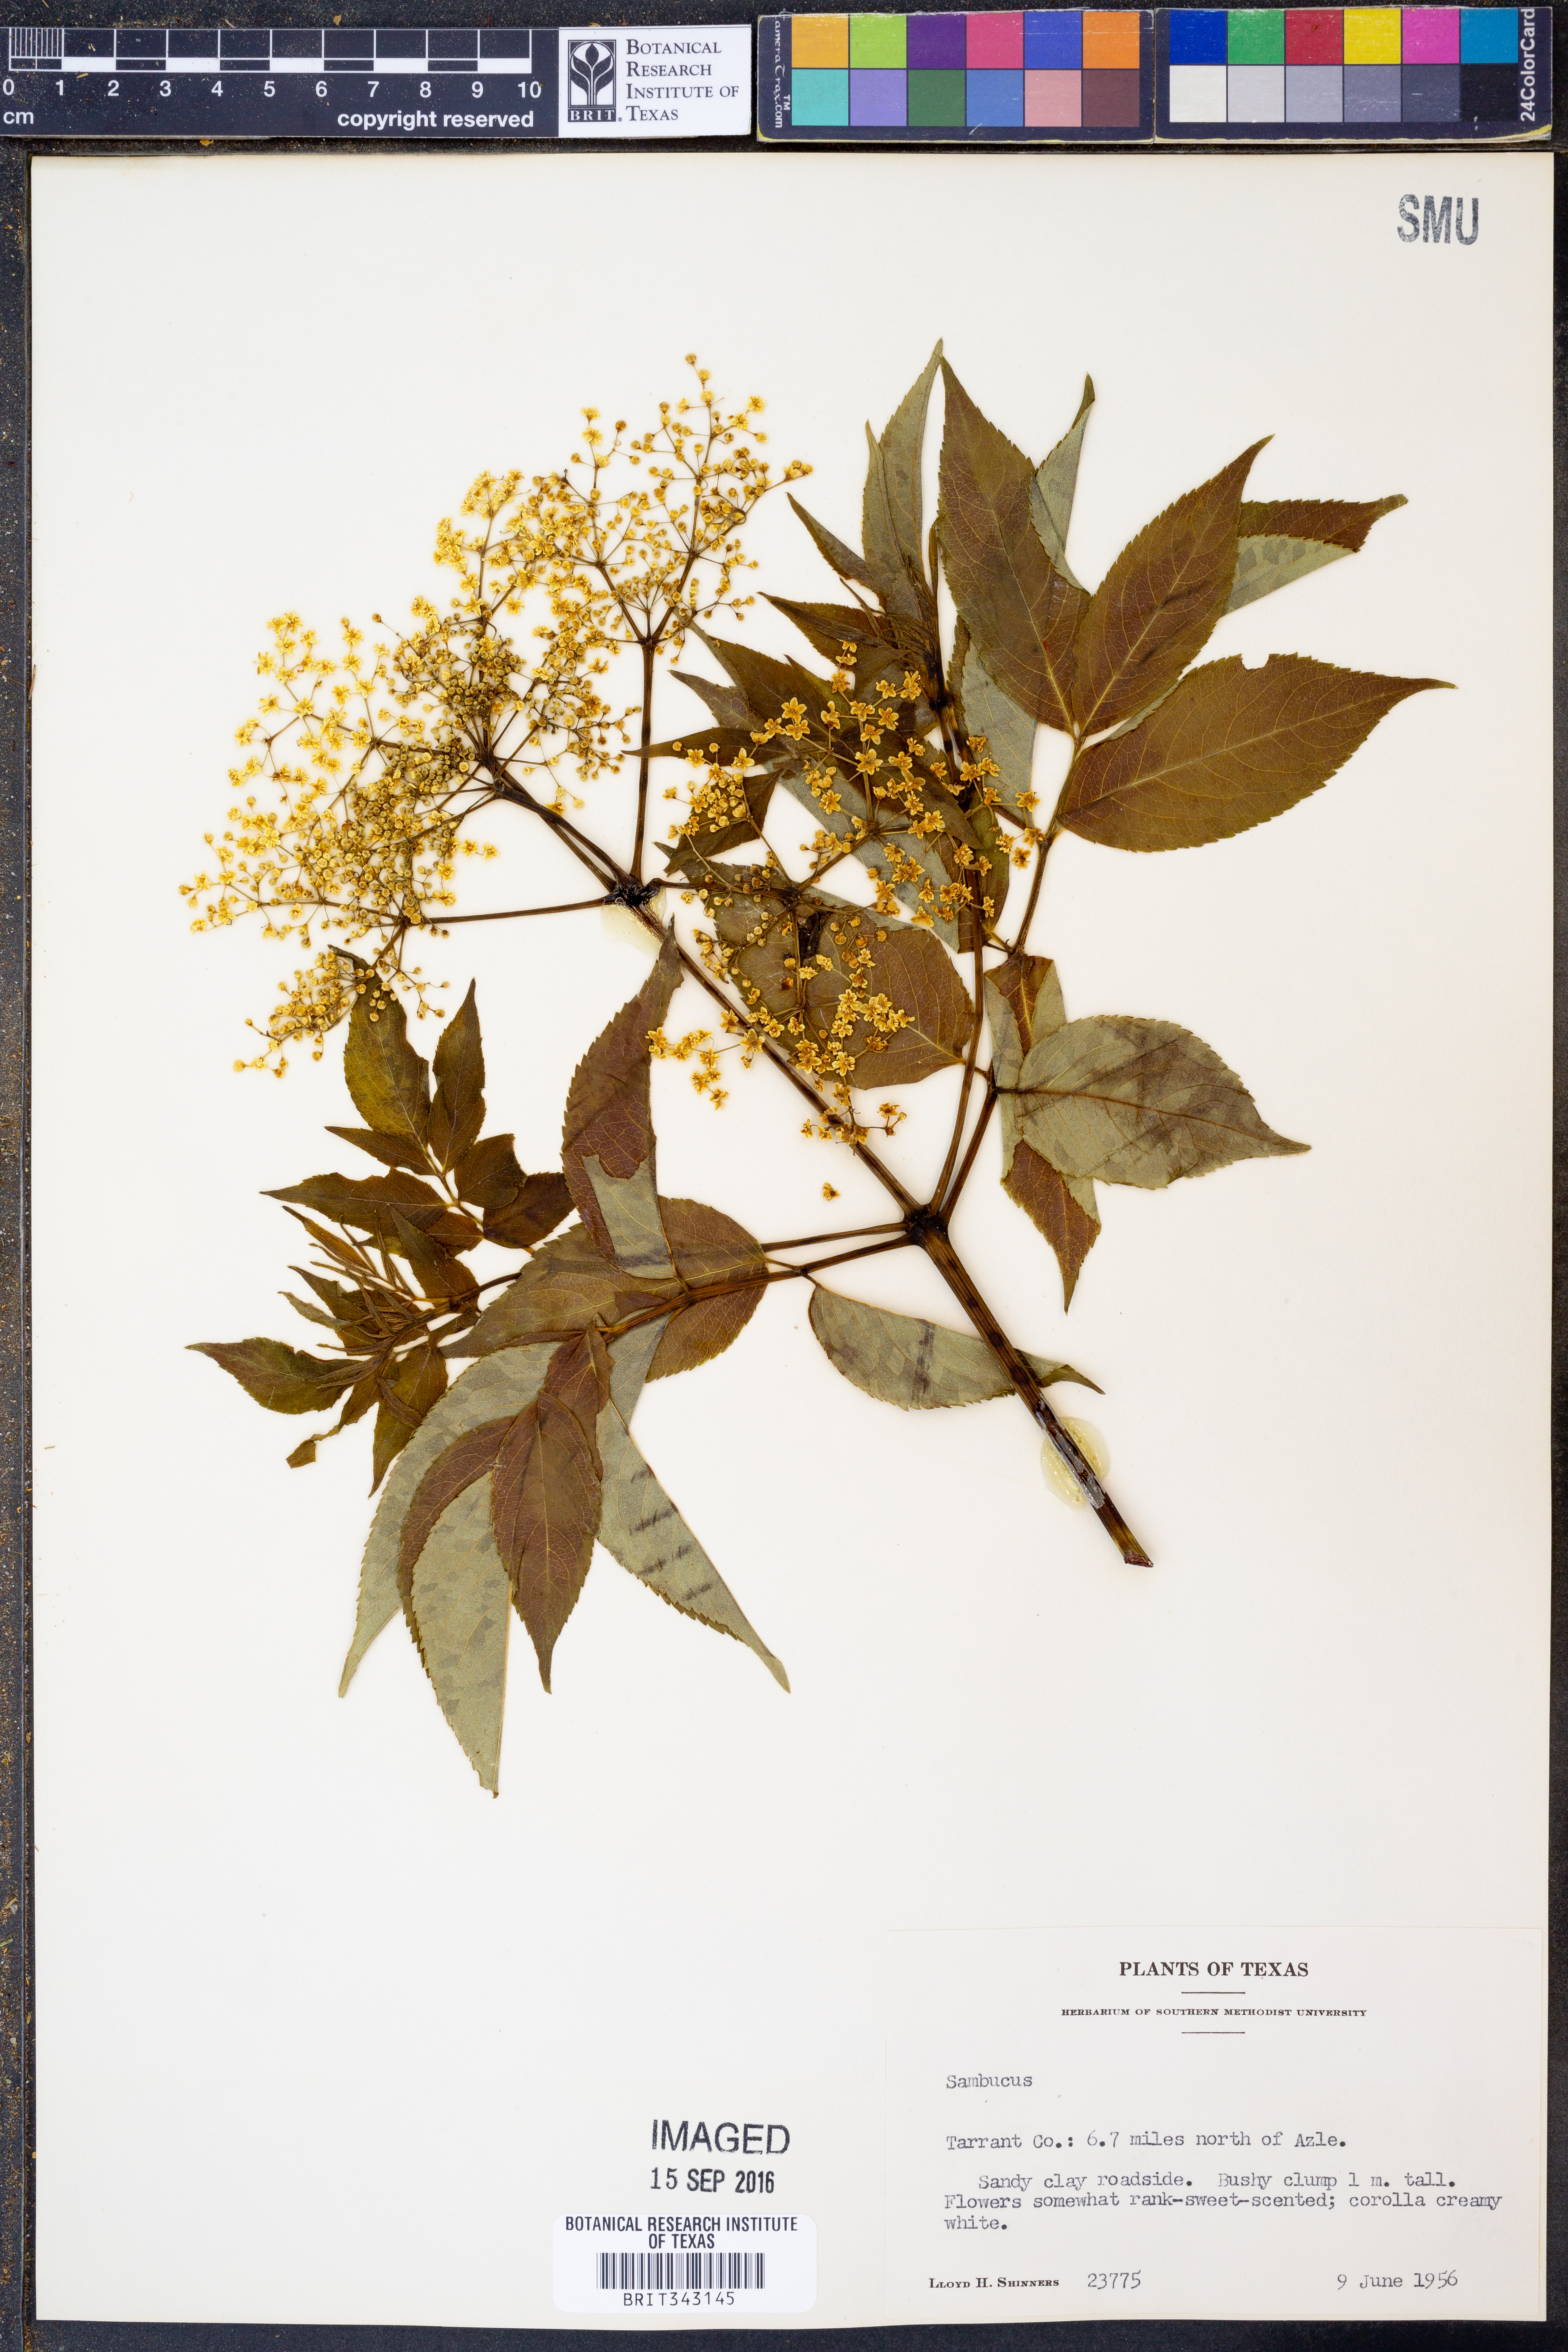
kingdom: Plantae
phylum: Tracheophyta
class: Magnoliopsida
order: Dipsacales
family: Viburnaceae
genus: Sambucus
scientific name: Sambucus
